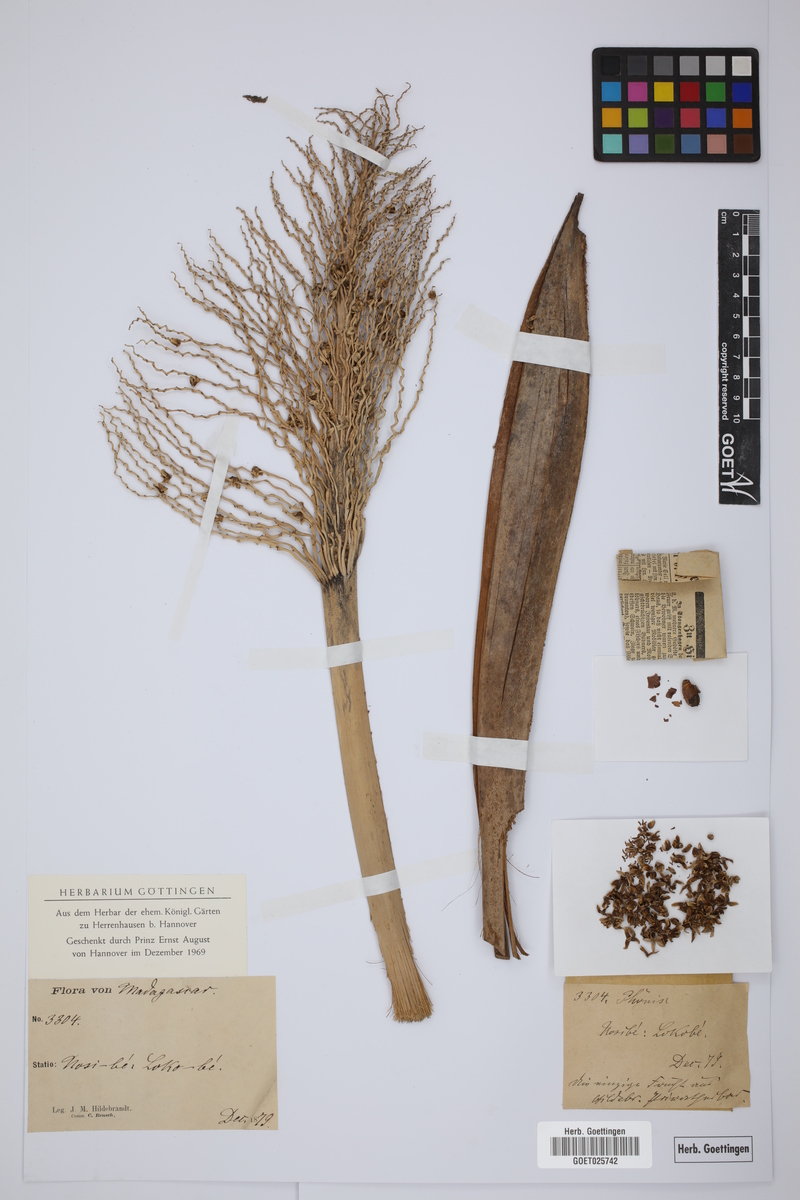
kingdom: Plantae
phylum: Tracheophyta
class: Liliopsida
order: Arecales
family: Arecaceae
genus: Phoenix
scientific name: Phoenix reclinata
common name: Senegal date palm
